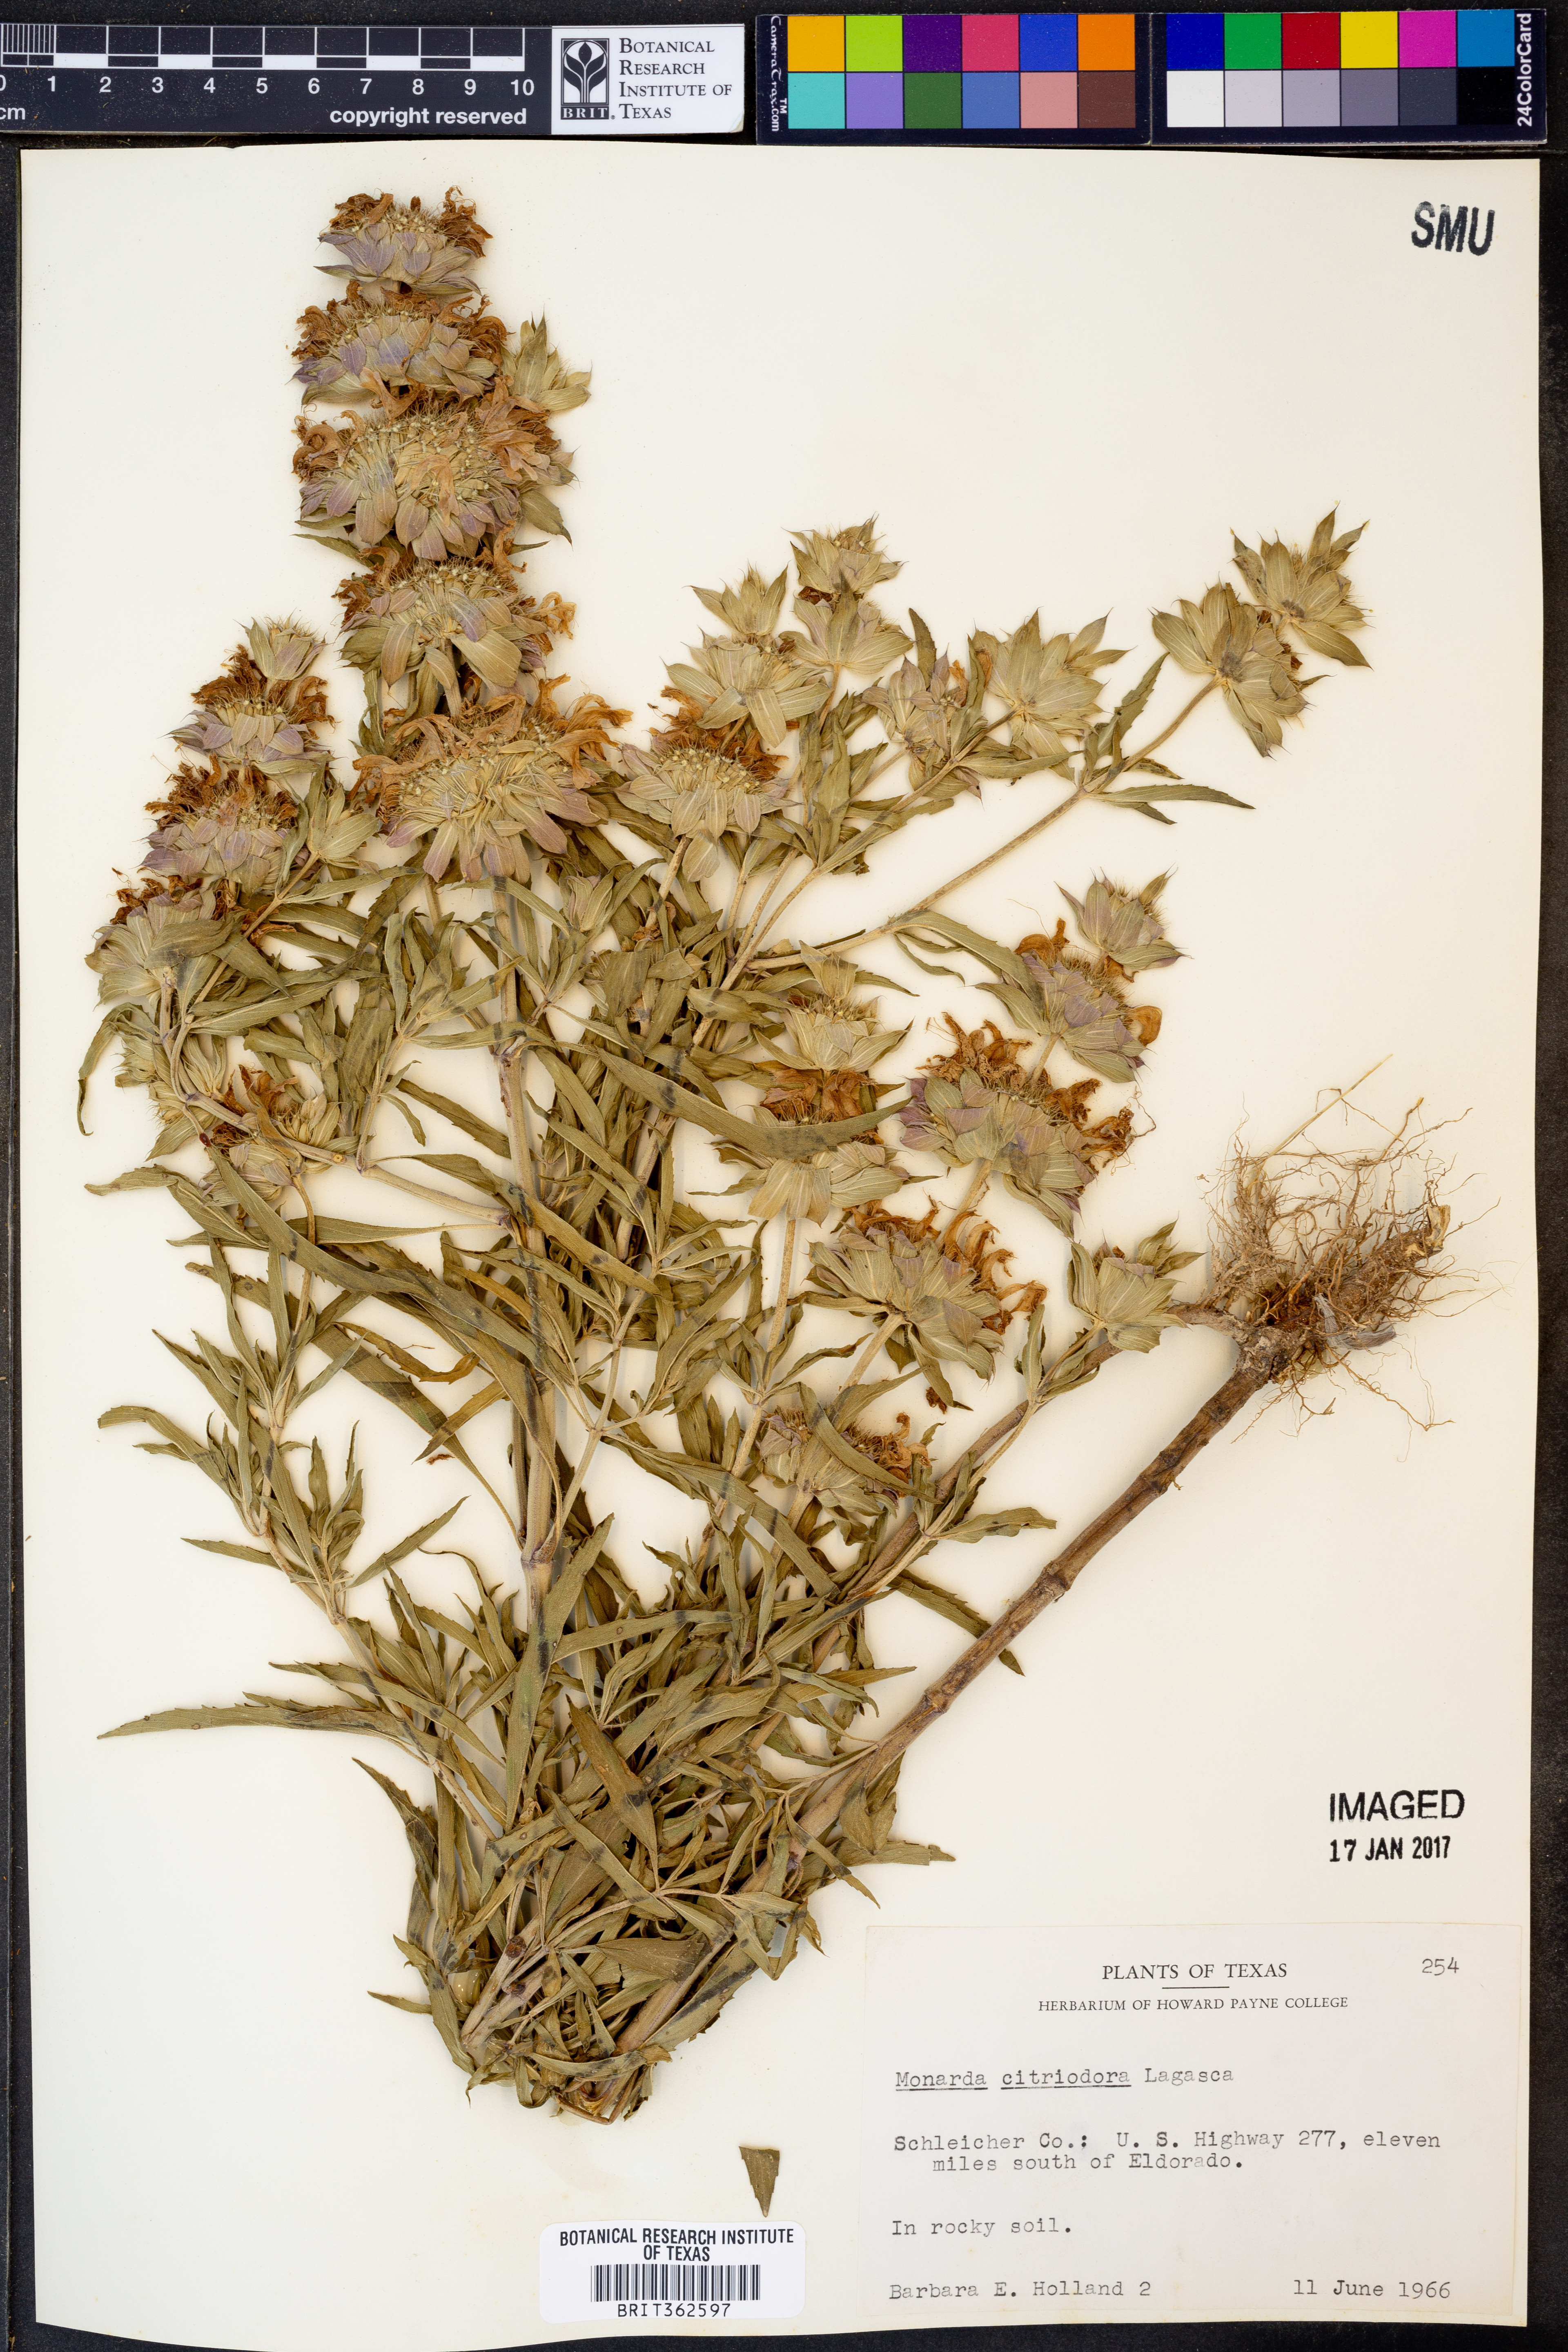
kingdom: Plantae
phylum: Tracheophyta
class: Magnoliopsida
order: Lamiales
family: Lamiaceae
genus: Monarda
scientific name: Monarda citriodora
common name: Lemon beebalm
